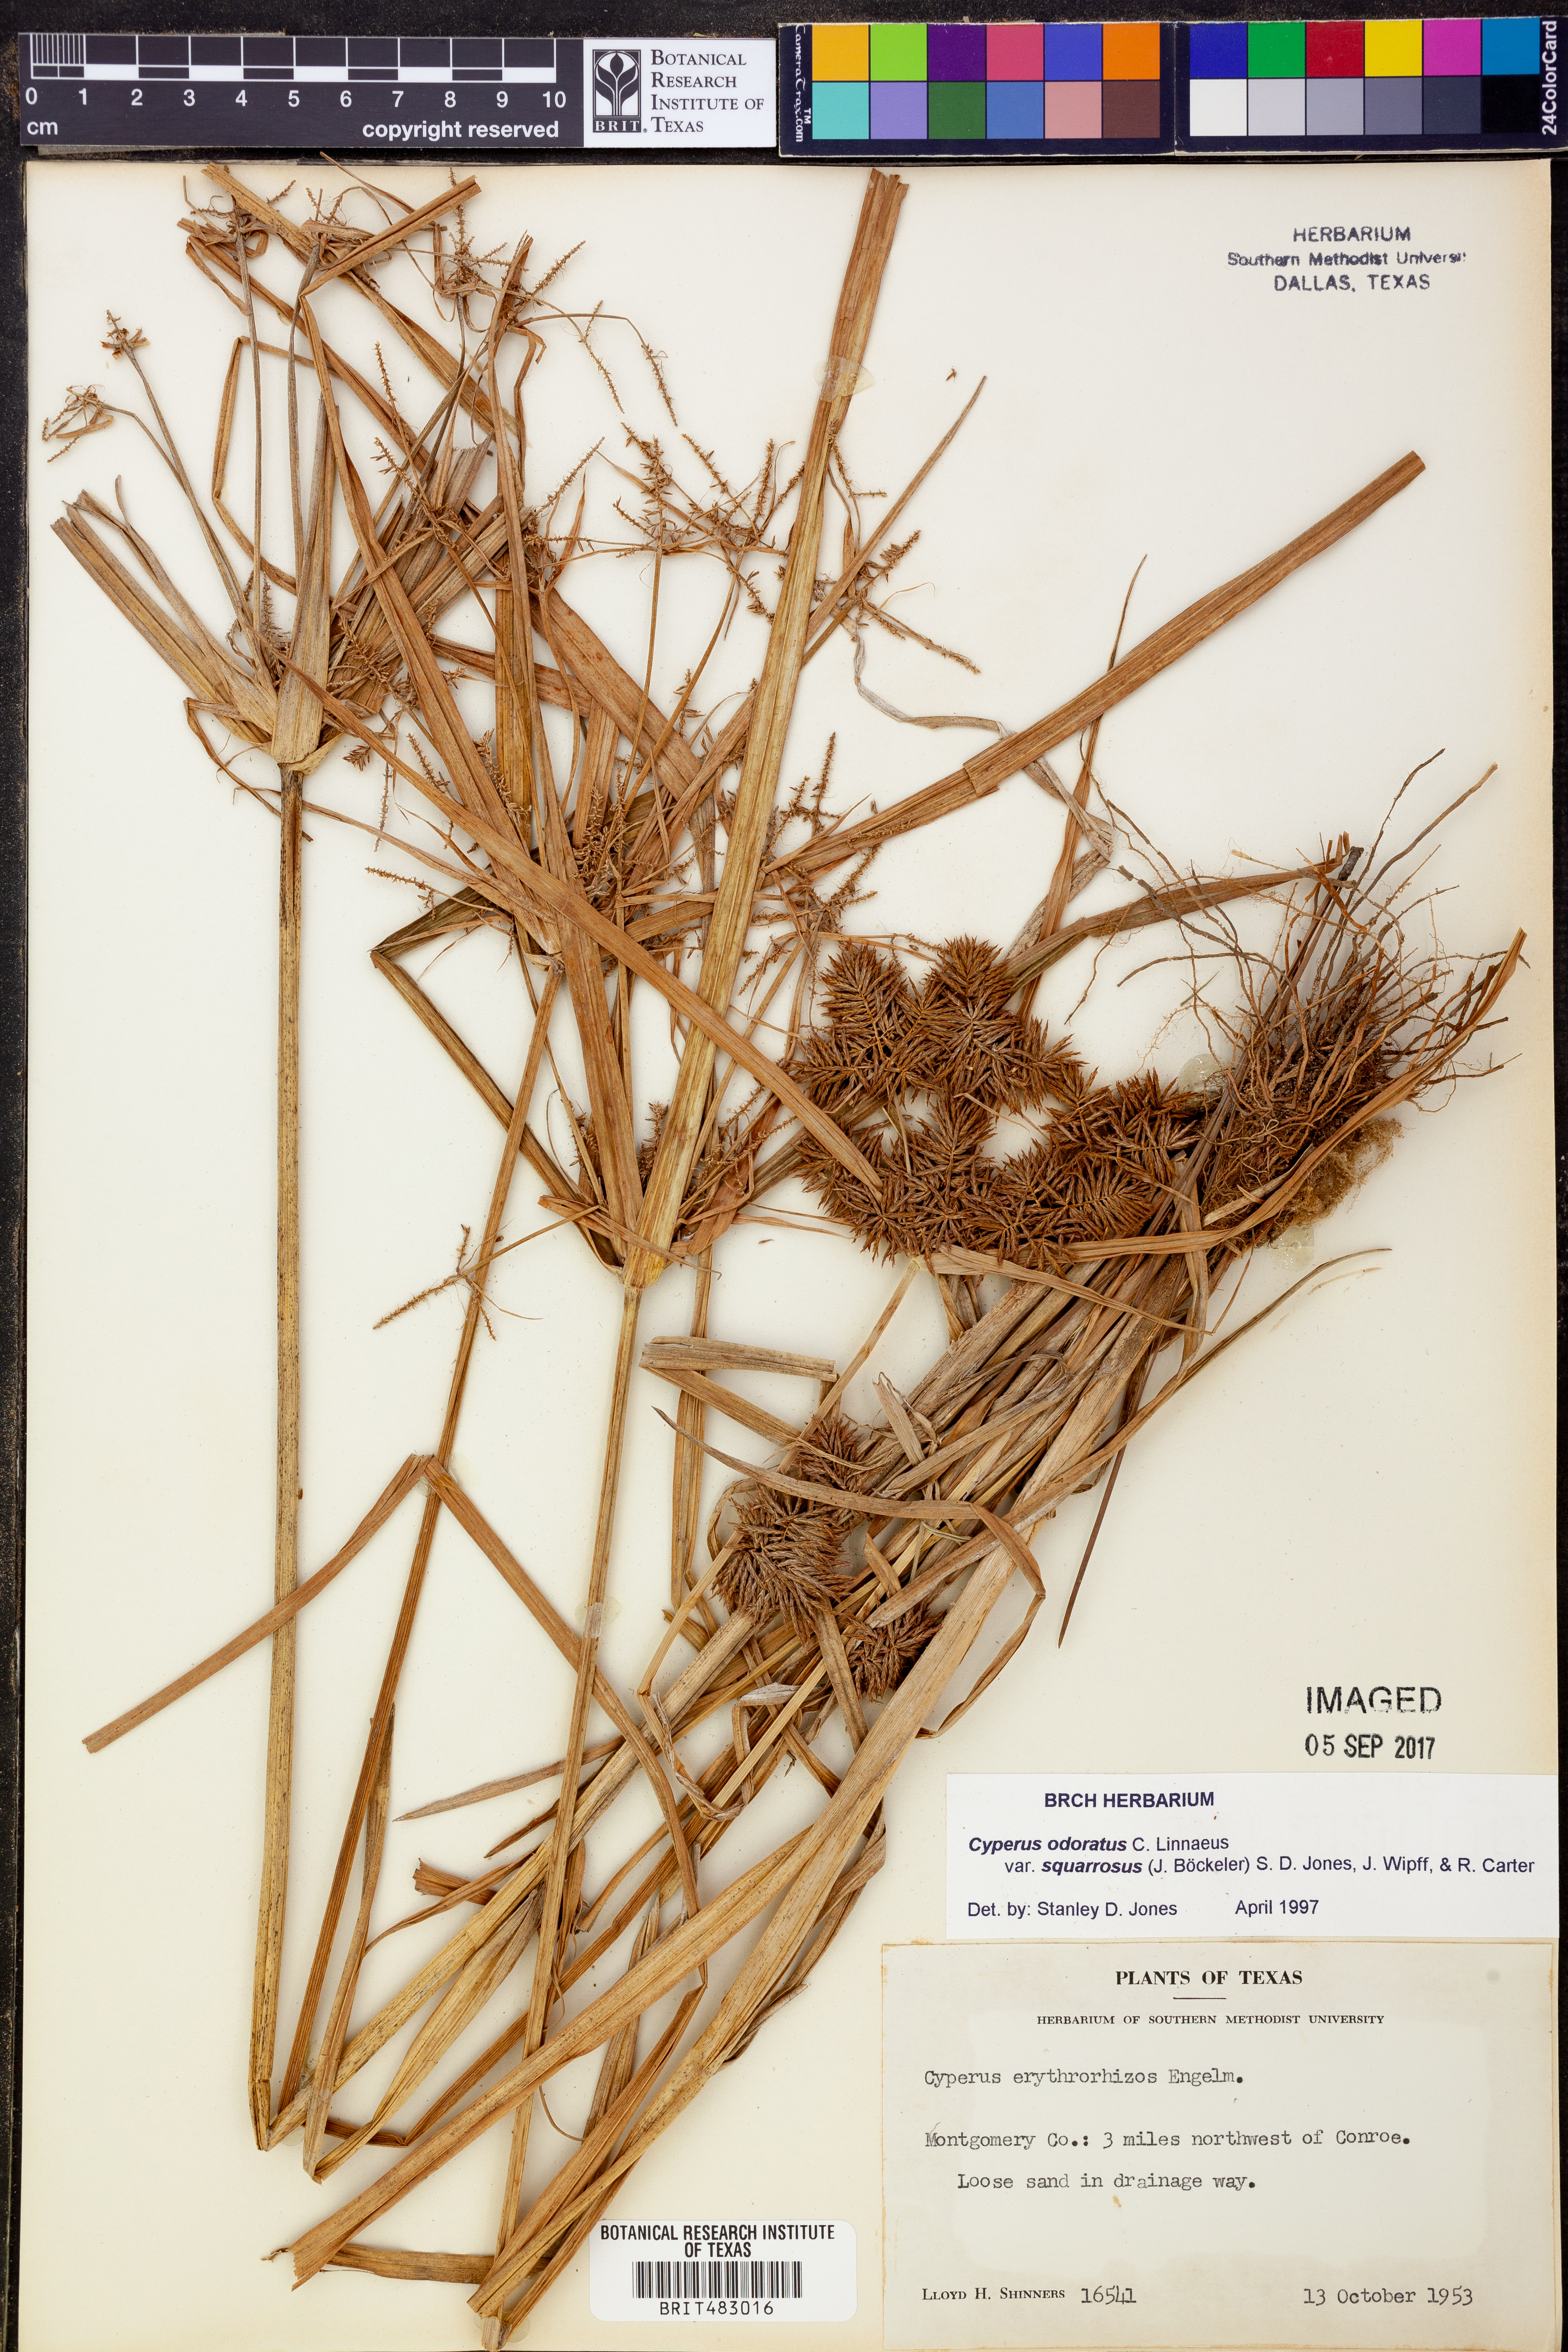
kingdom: Plantae
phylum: Tracheophyta
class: Liliopsida
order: Poales
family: Cyperaceae
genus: Cyperus
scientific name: Cyperus odoratus
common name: Fragrant flatsedge
